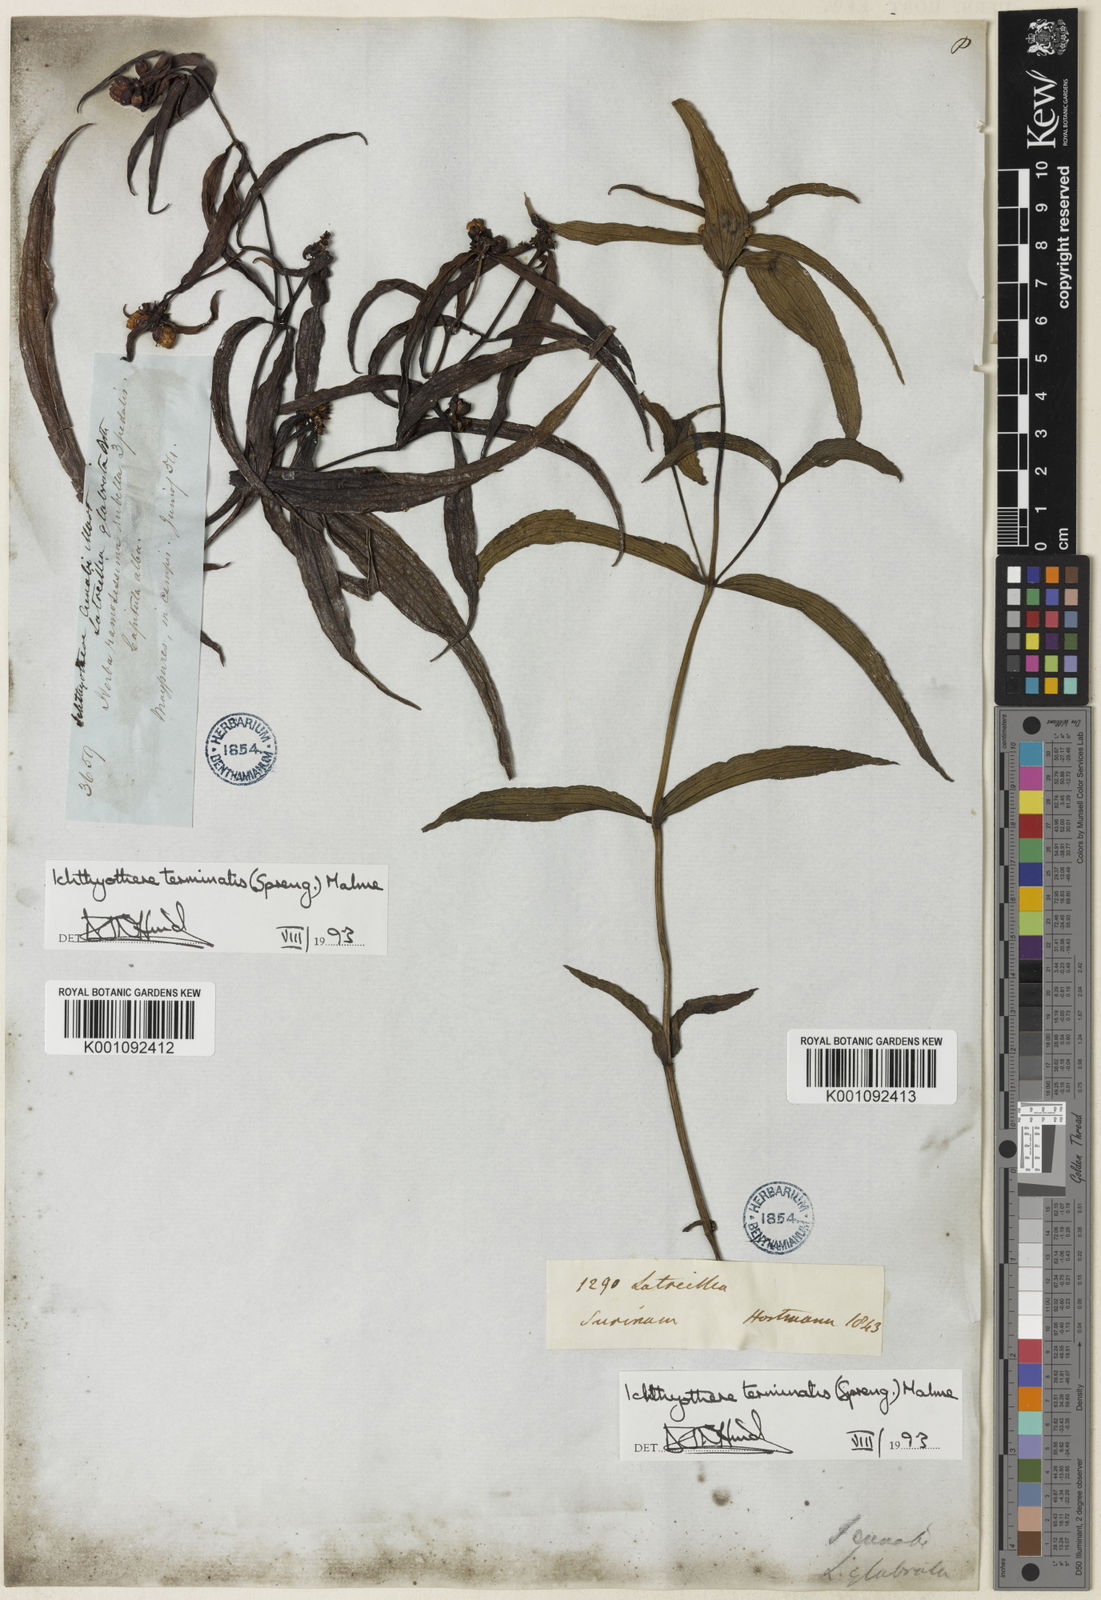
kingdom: Plantae
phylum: Tracheophyta
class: Magnoliopsida
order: Asterales
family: Asteraceae
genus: Ichthyothere
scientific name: Ichthyothere
